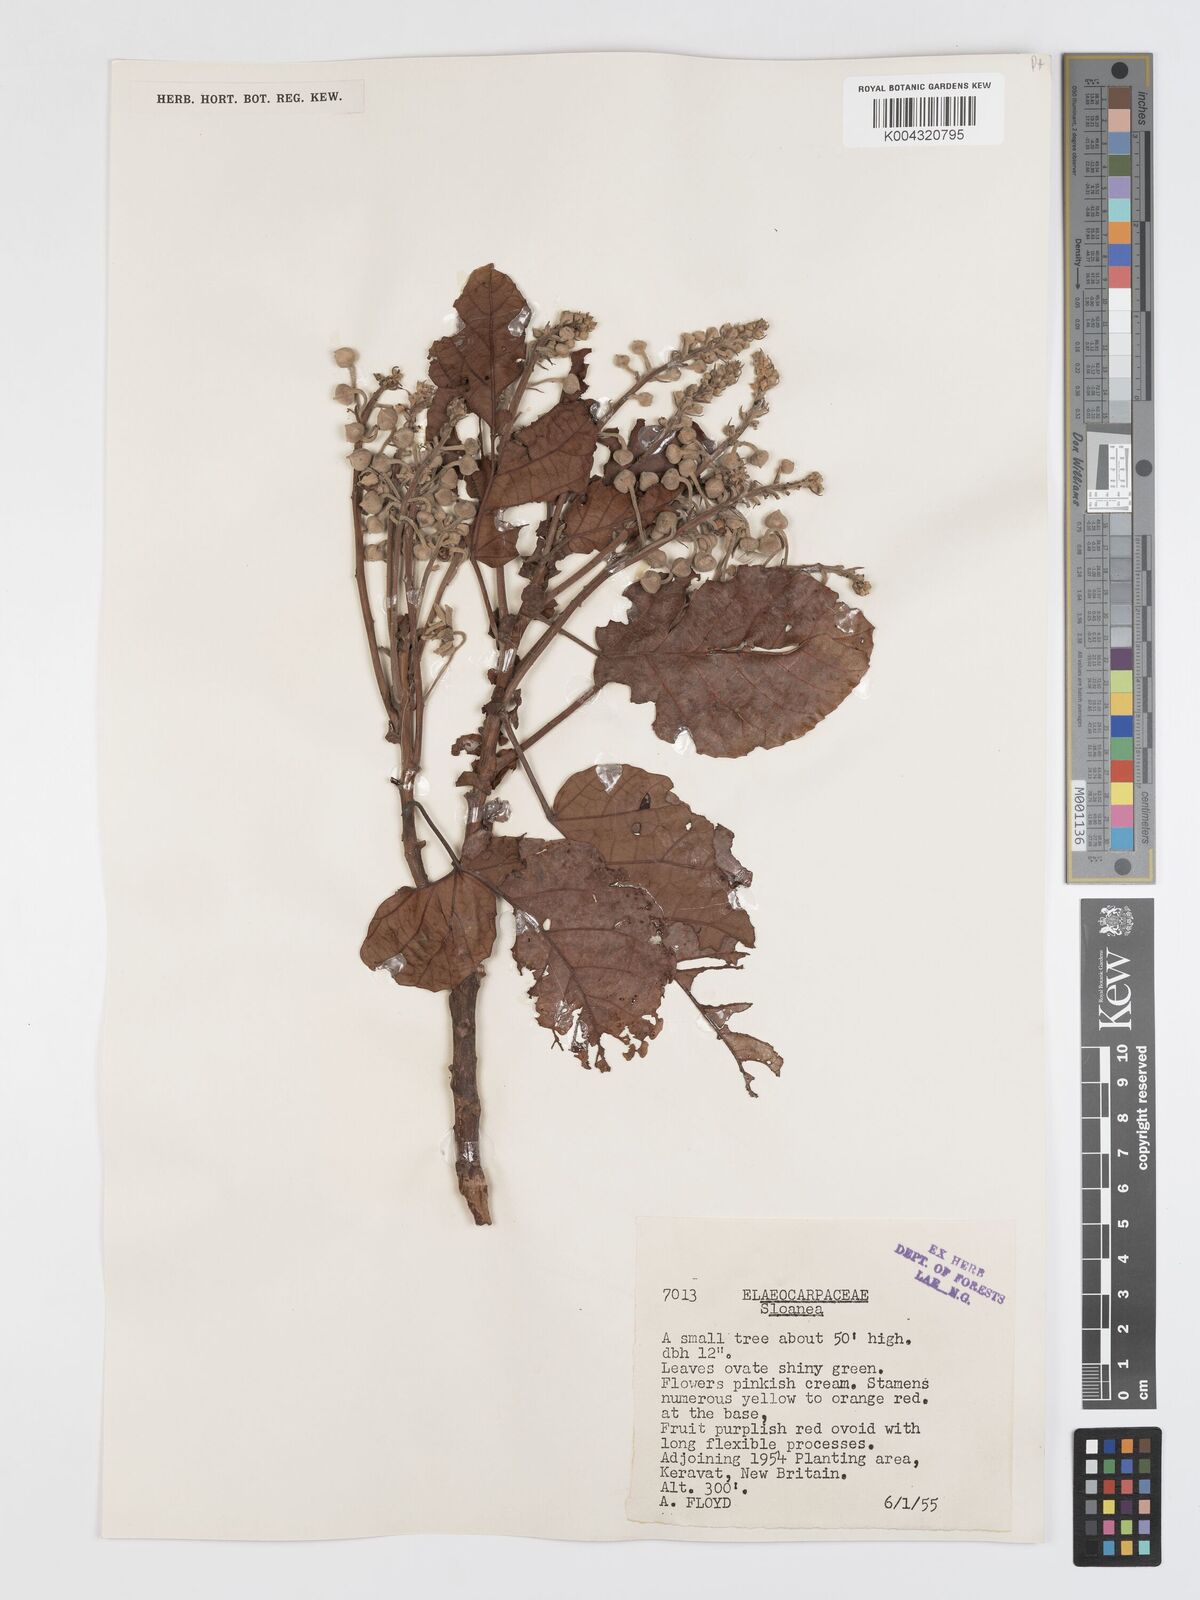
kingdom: Plantae
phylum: Tracheophyta
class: Magnoliopsida
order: Oxalidales
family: Elaeocarpaceae
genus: Sloanea
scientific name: Sloanea sogerensis
